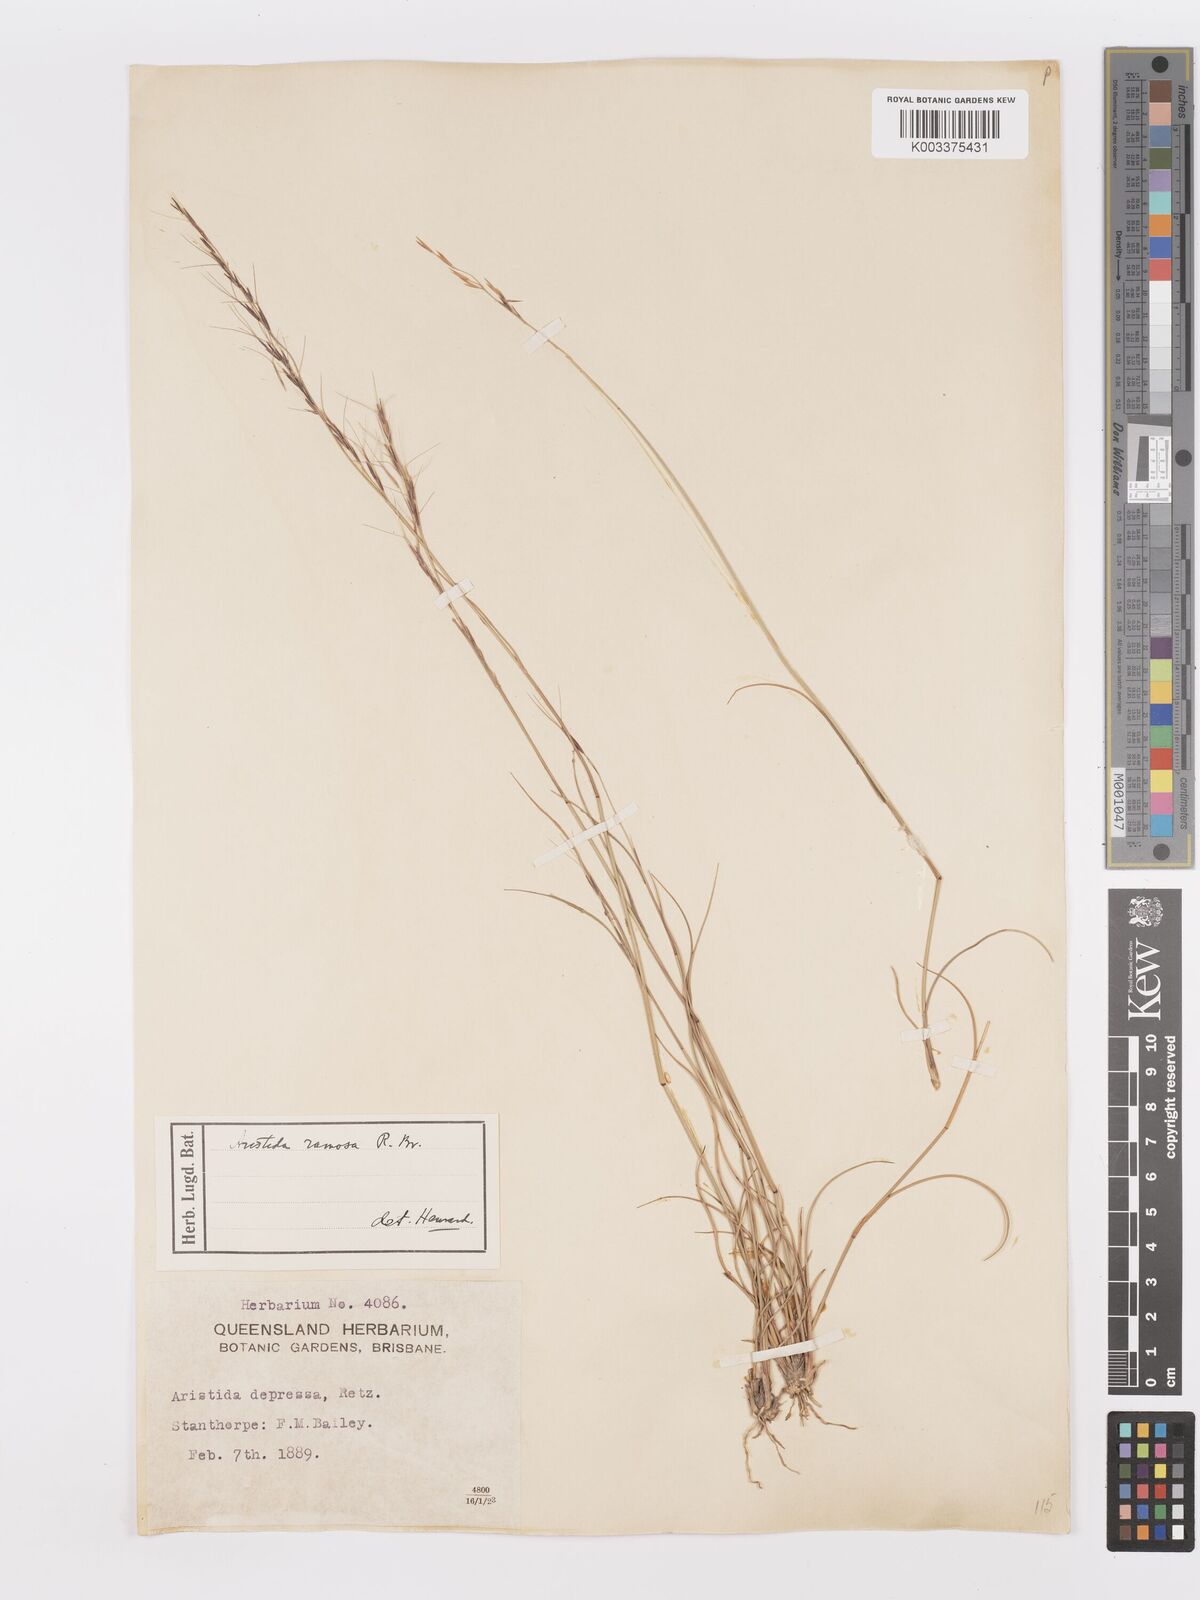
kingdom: Plantae
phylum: Tracheophyta
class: Liliopsida
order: Poales
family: Poaceae
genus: Aristida
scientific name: Aristida ramosa
